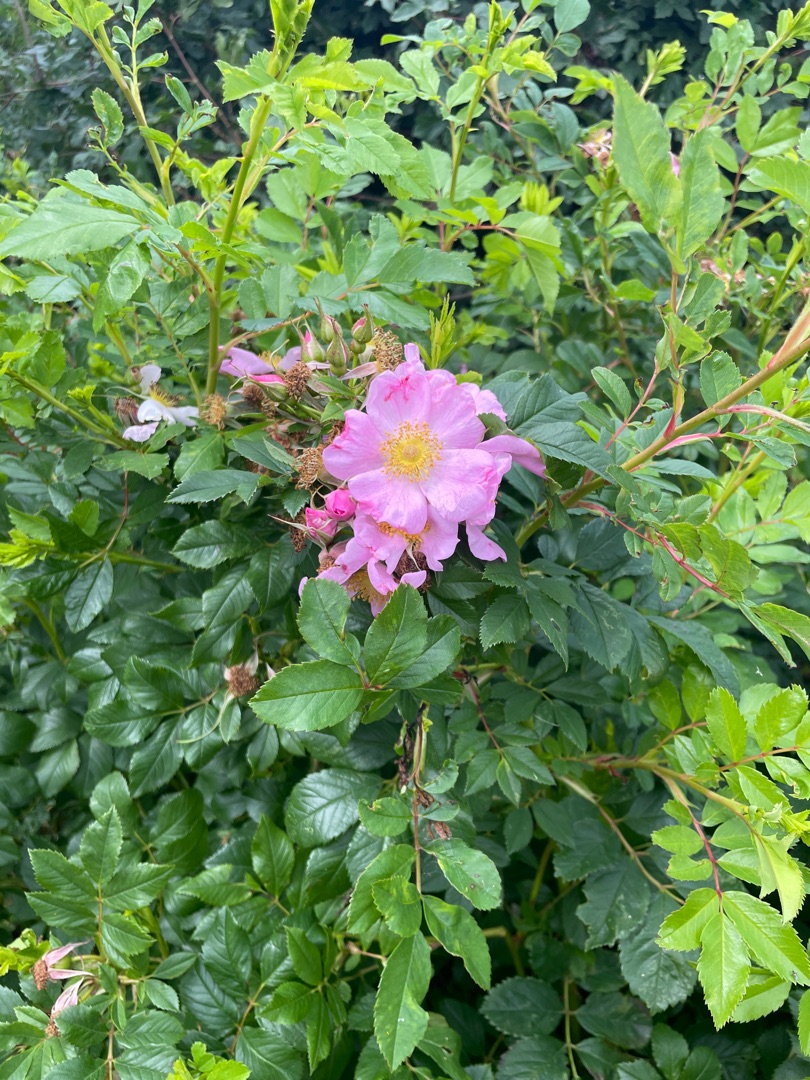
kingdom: Plantae
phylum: Tracheophyta
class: Magnoliopsida
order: Rosales
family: Rosaceae
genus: Rosa
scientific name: Rosa carolina
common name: Glansbladet rose
